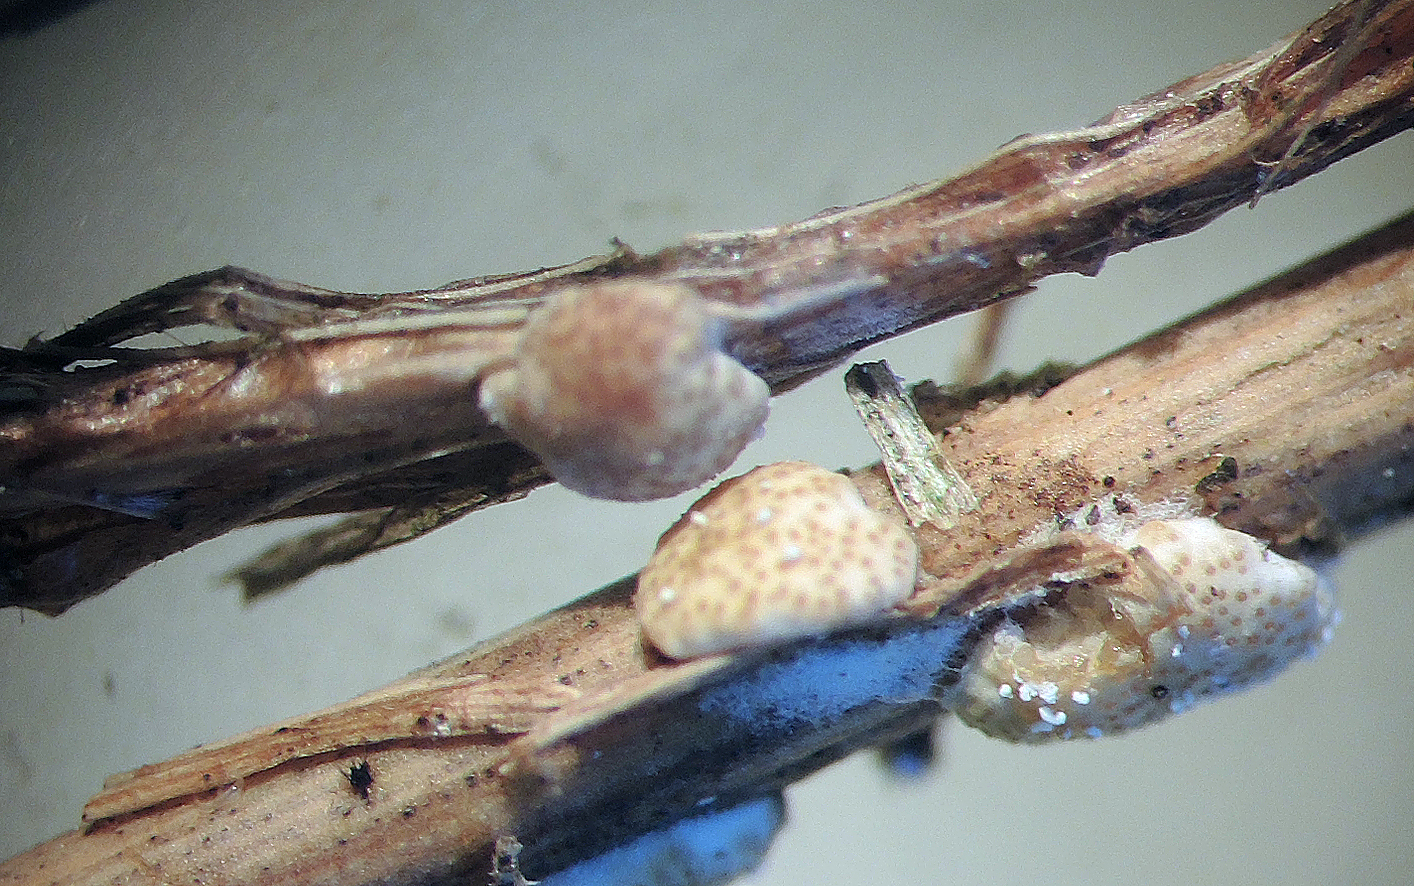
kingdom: Fungi
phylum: Ascomycota
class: Sordariomycetes
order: Hypocreales
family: Hypocreaceae
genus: Trichoderma
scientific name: Trichoderma placentula
